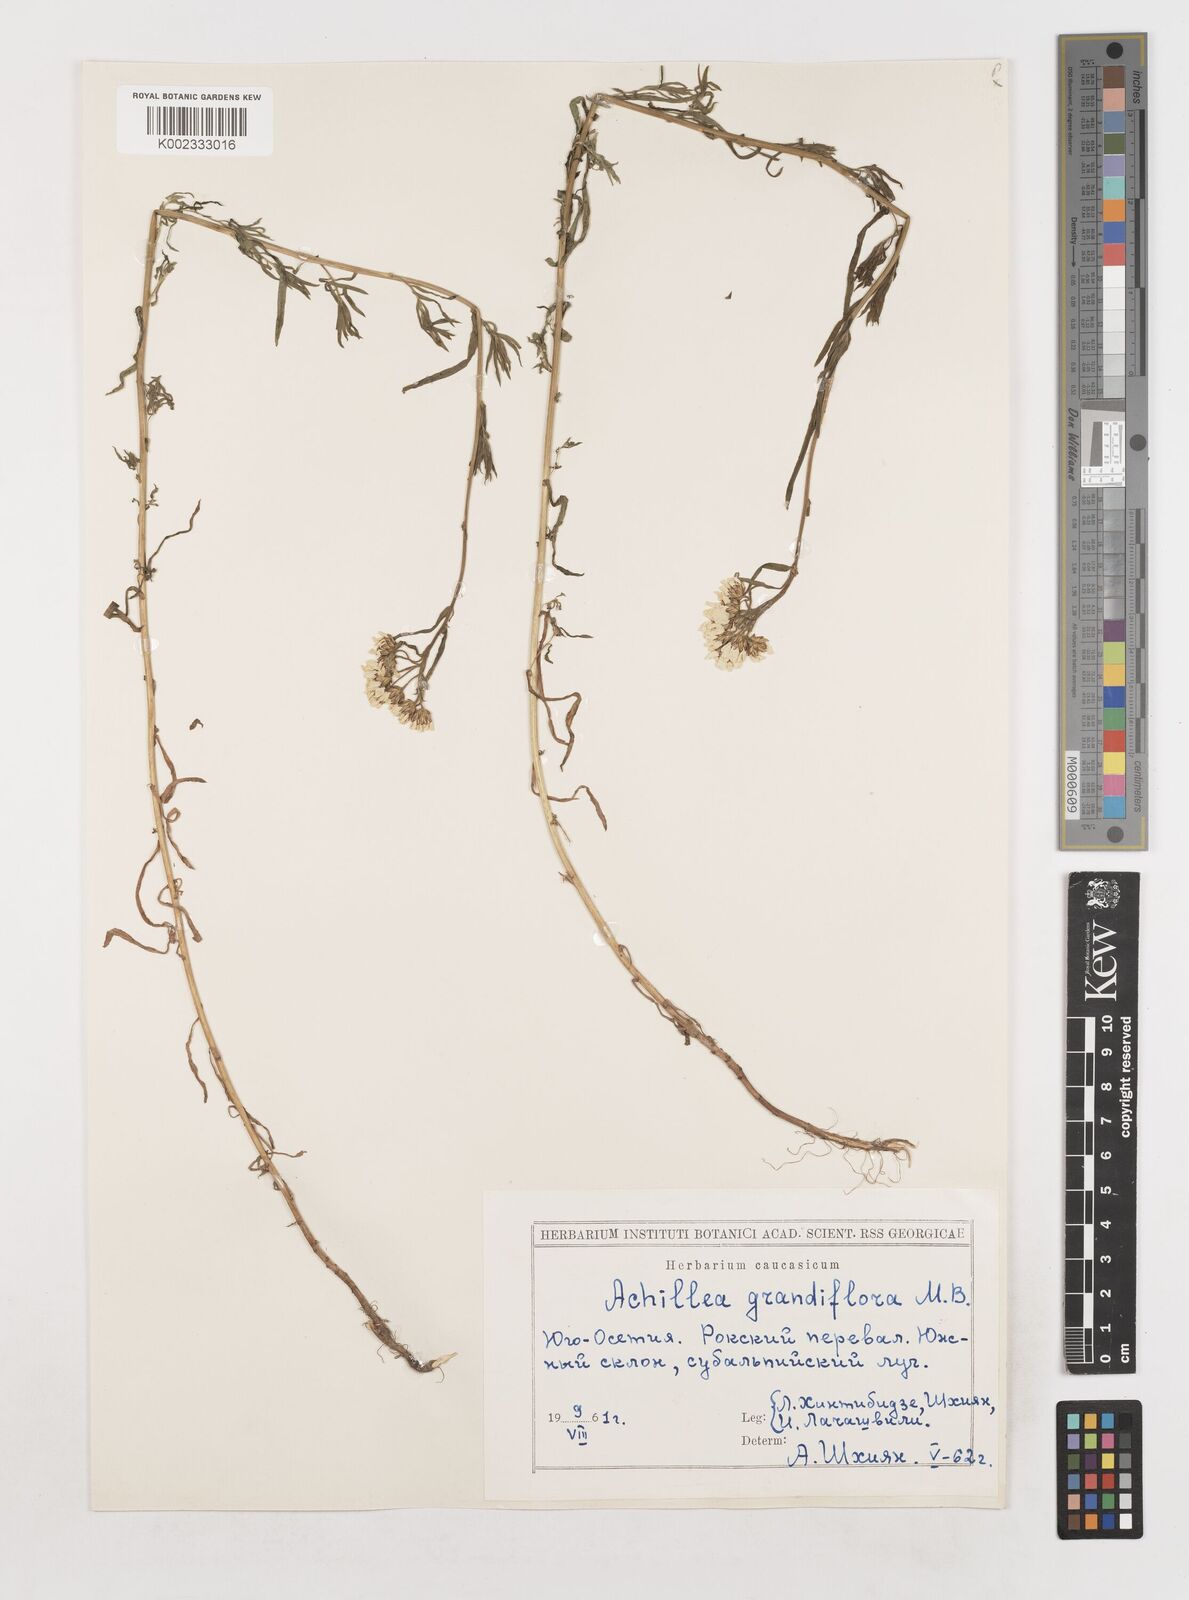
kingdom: Plantae
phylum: Tracheophyta
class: Magnoliopsida
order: Asterales
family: Asteraceae
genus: Achillea
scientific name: Achillea ptarmicifolia
